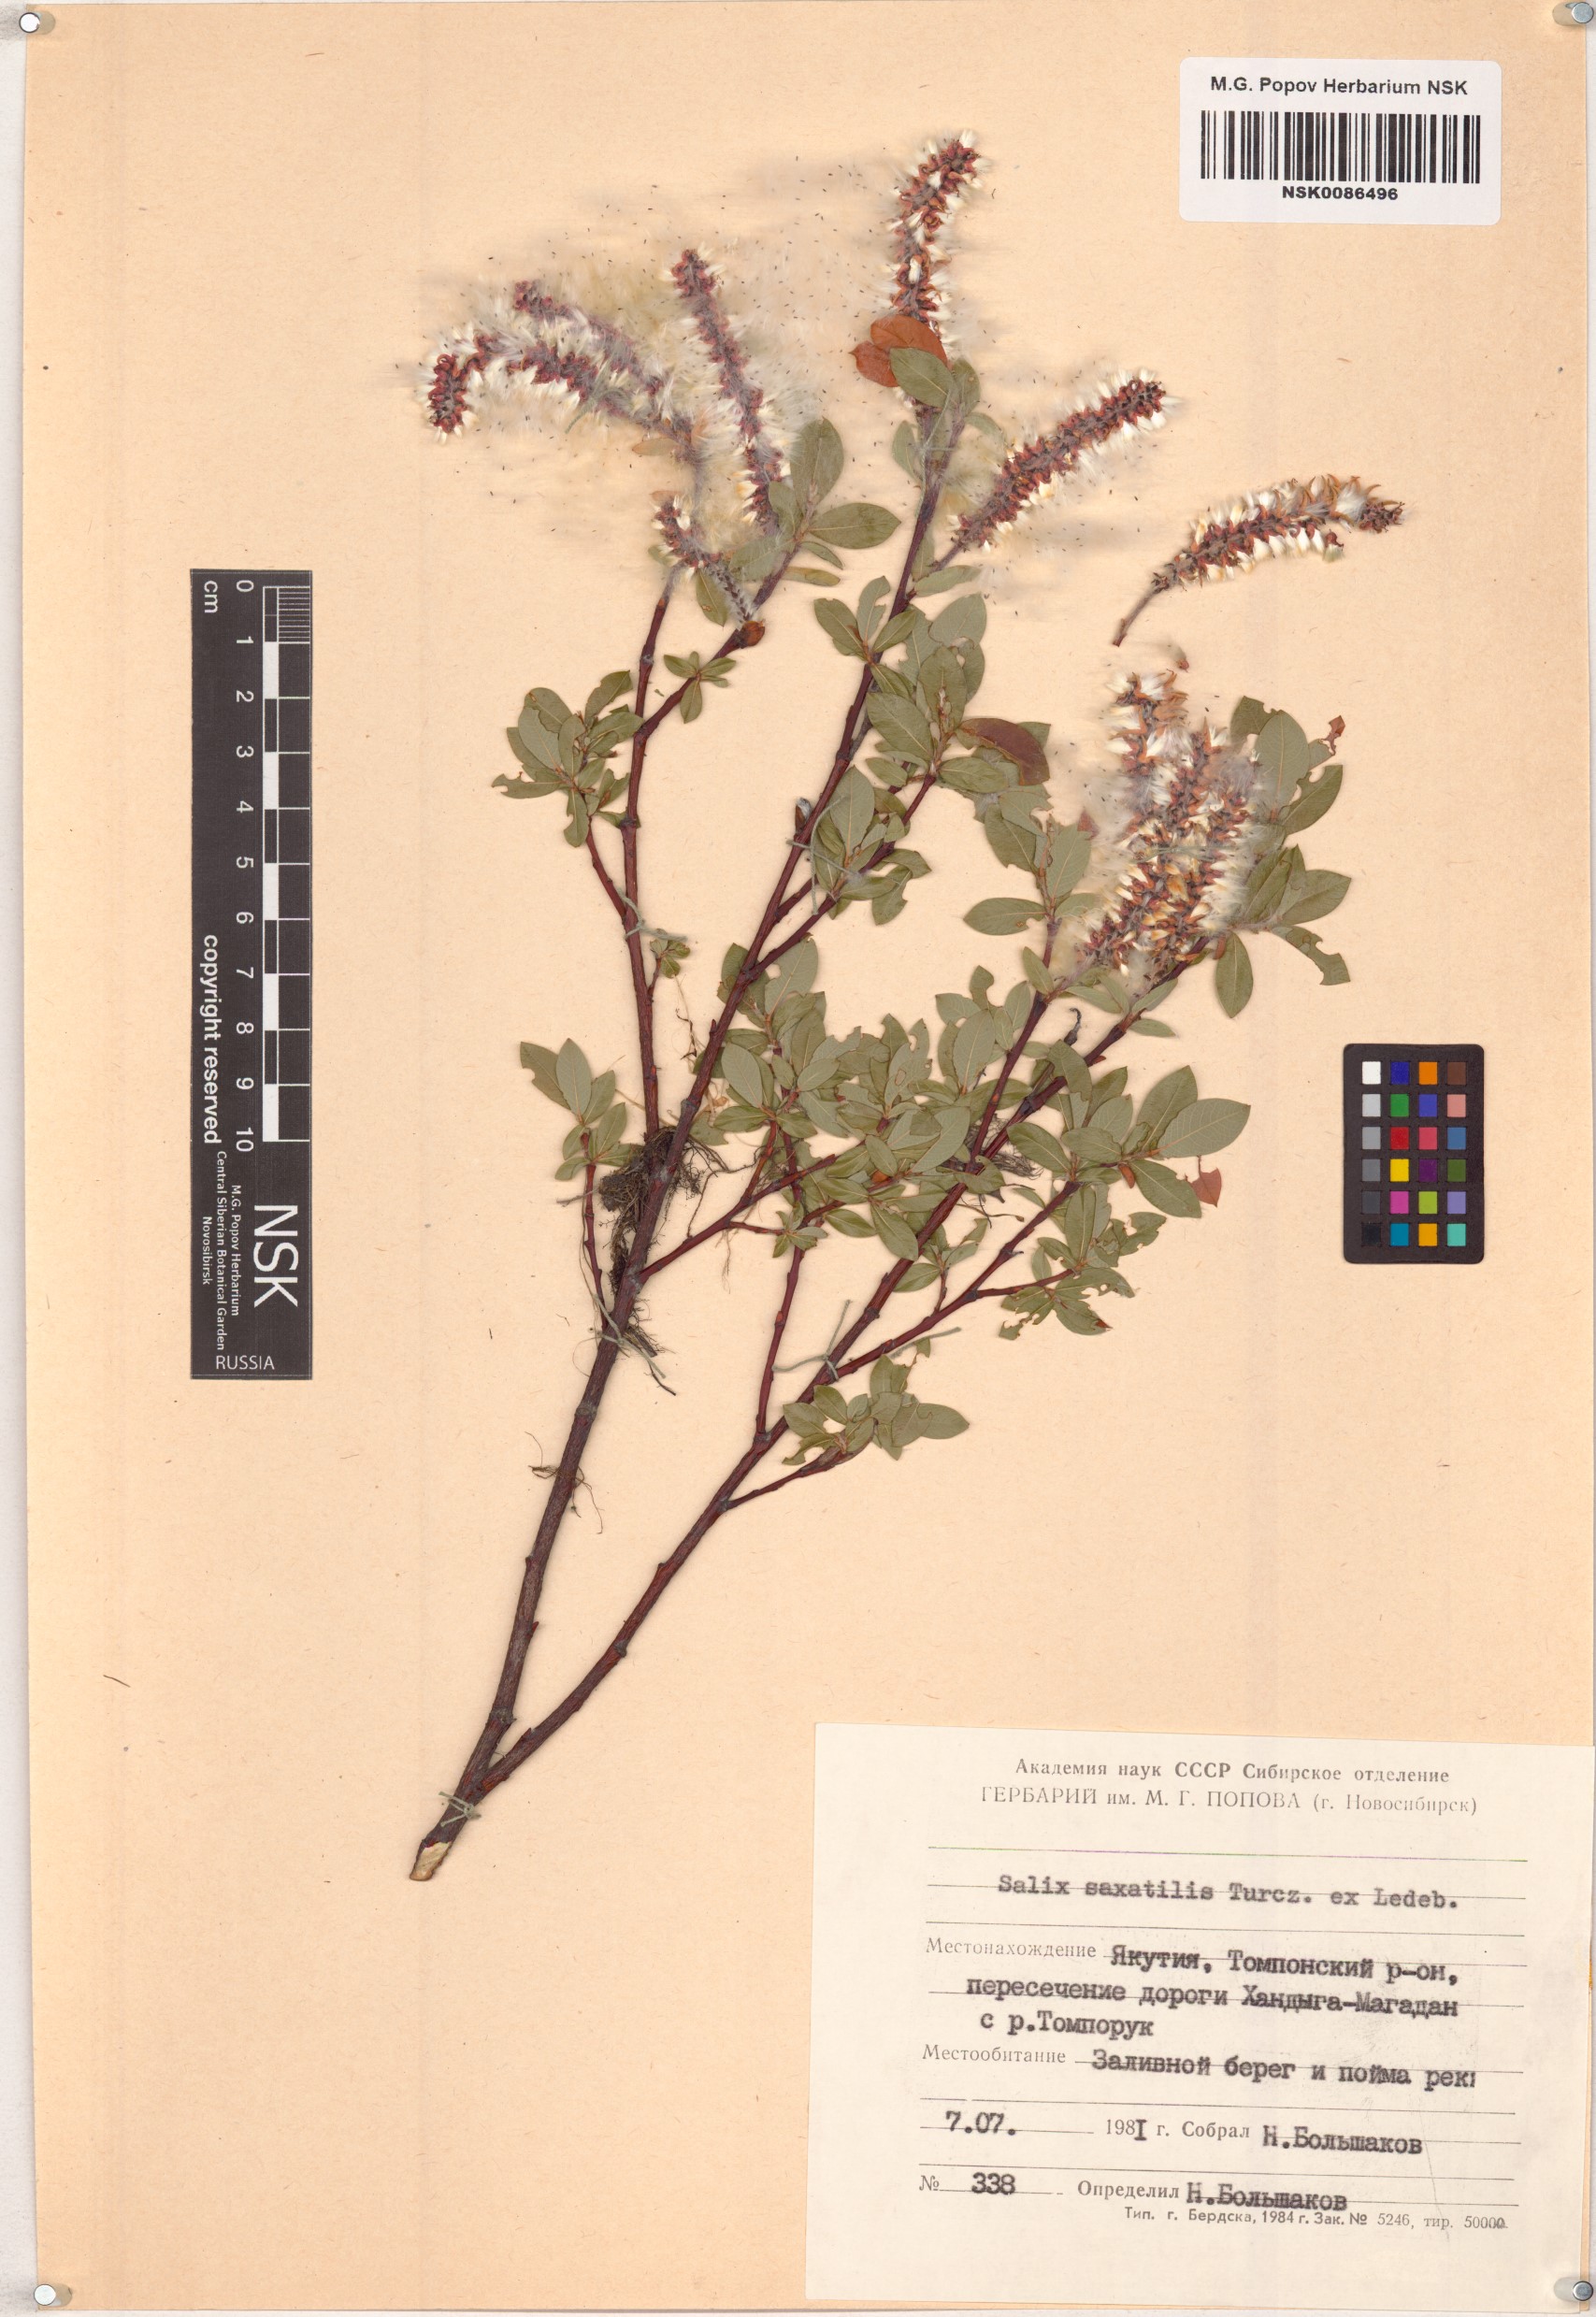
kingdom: Plantae
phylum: Tracheophyta
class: Magnoliopsida
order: Malpighiales
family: Salicaceae
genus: Salix
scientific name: Salix saxatilis
